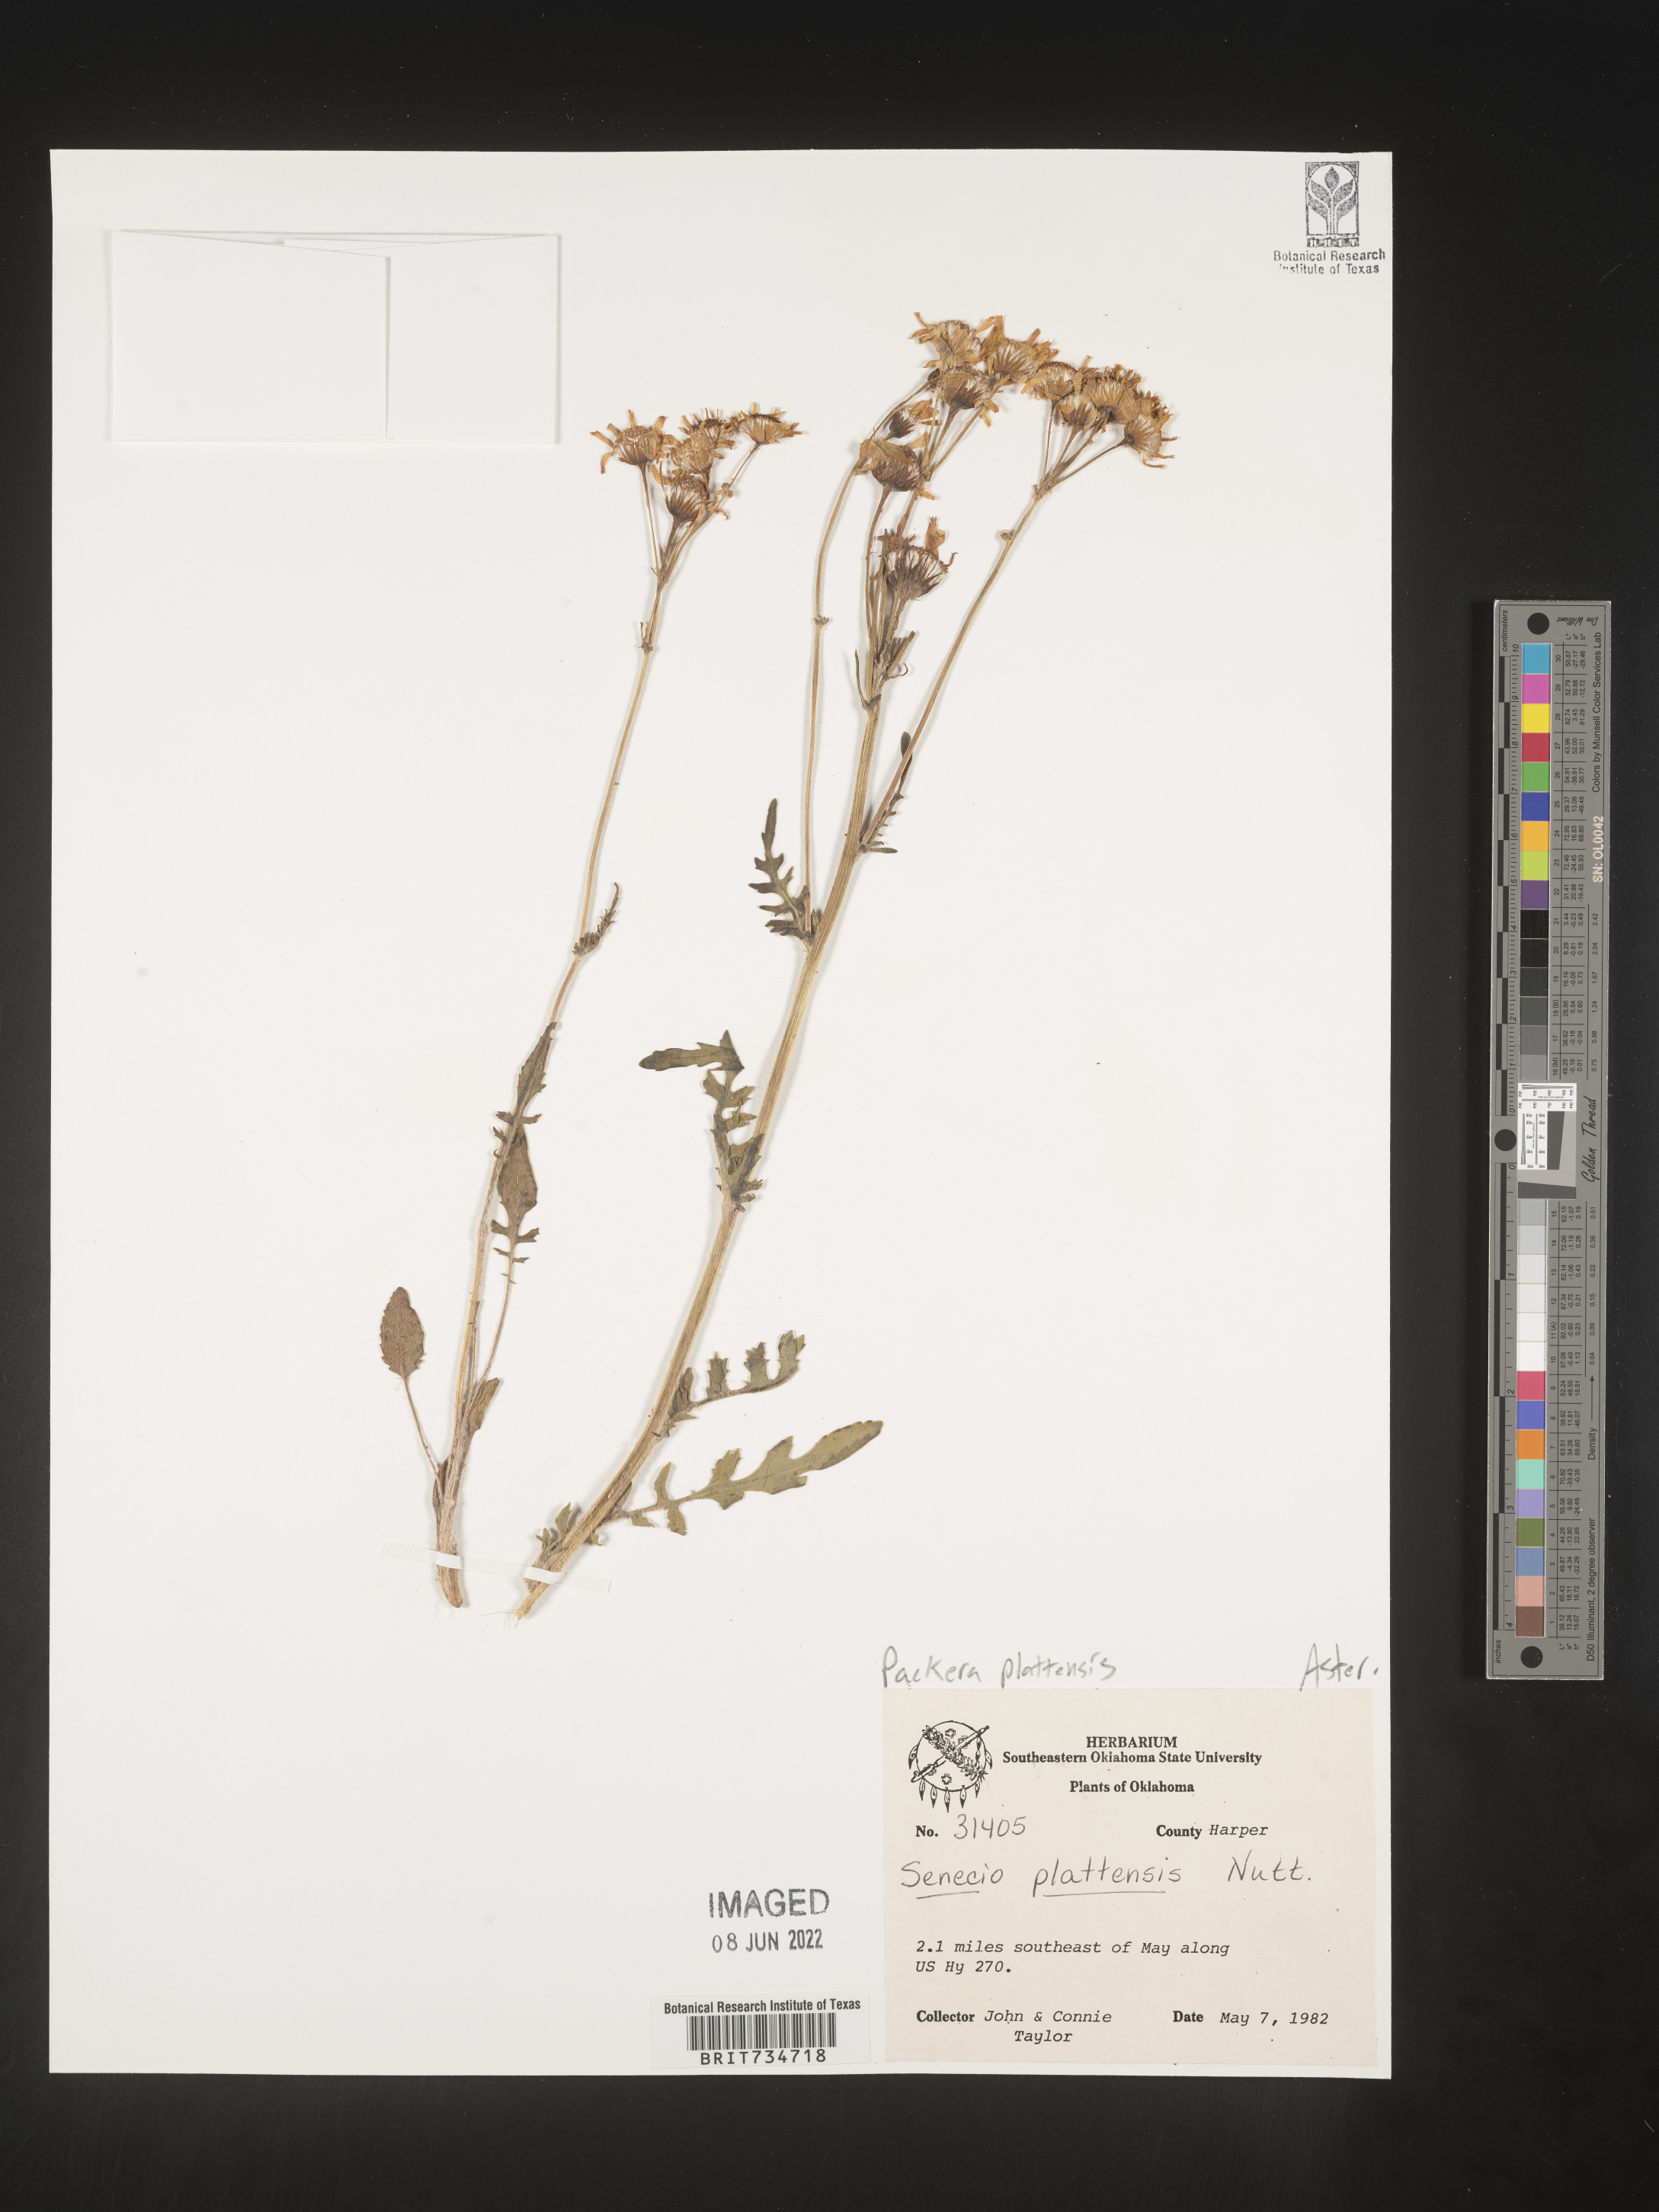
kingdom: Plantae
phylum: Tracheophyta
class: Magnoliopsida
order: Asterales
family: Asteraceae
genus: Packera
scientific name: Packera plattensis
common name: Prairie groundsel
